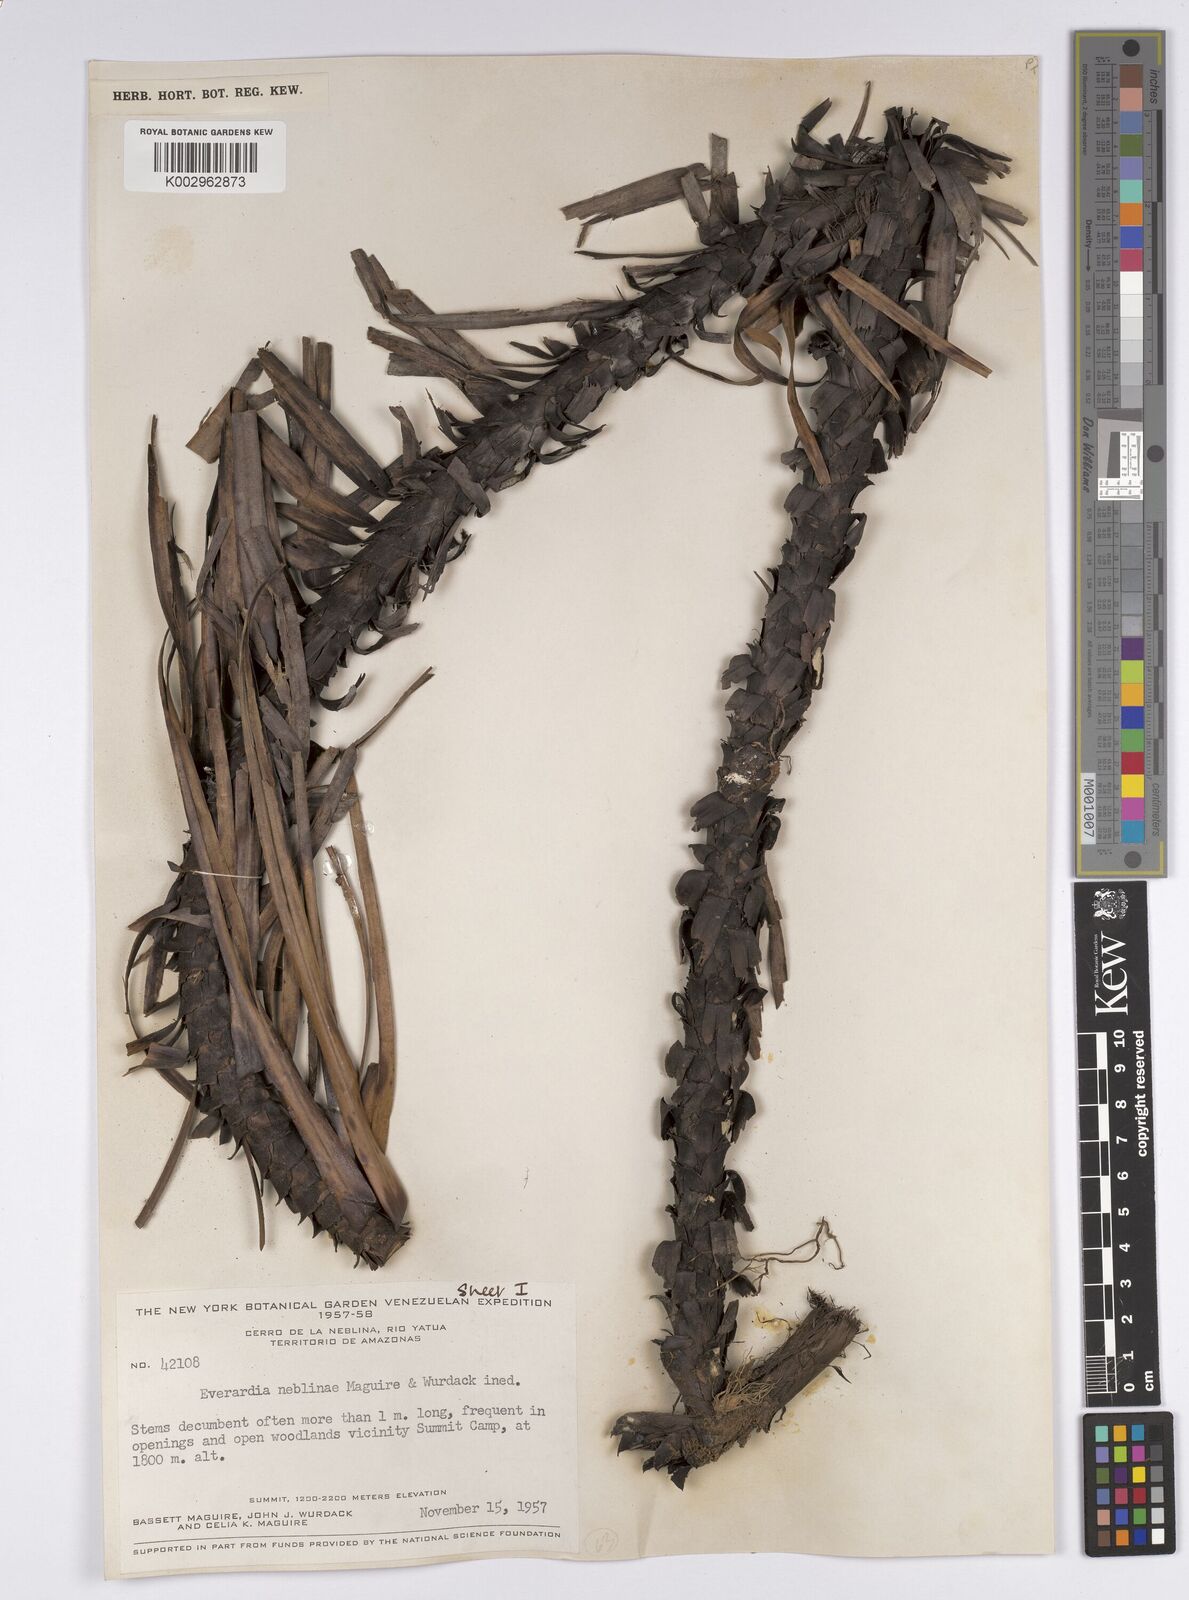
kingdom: Plantae
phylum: Tracheophyta
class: Liliopsida
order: Poales
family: Cyperaceae
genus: Everardia
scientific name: Everardia
